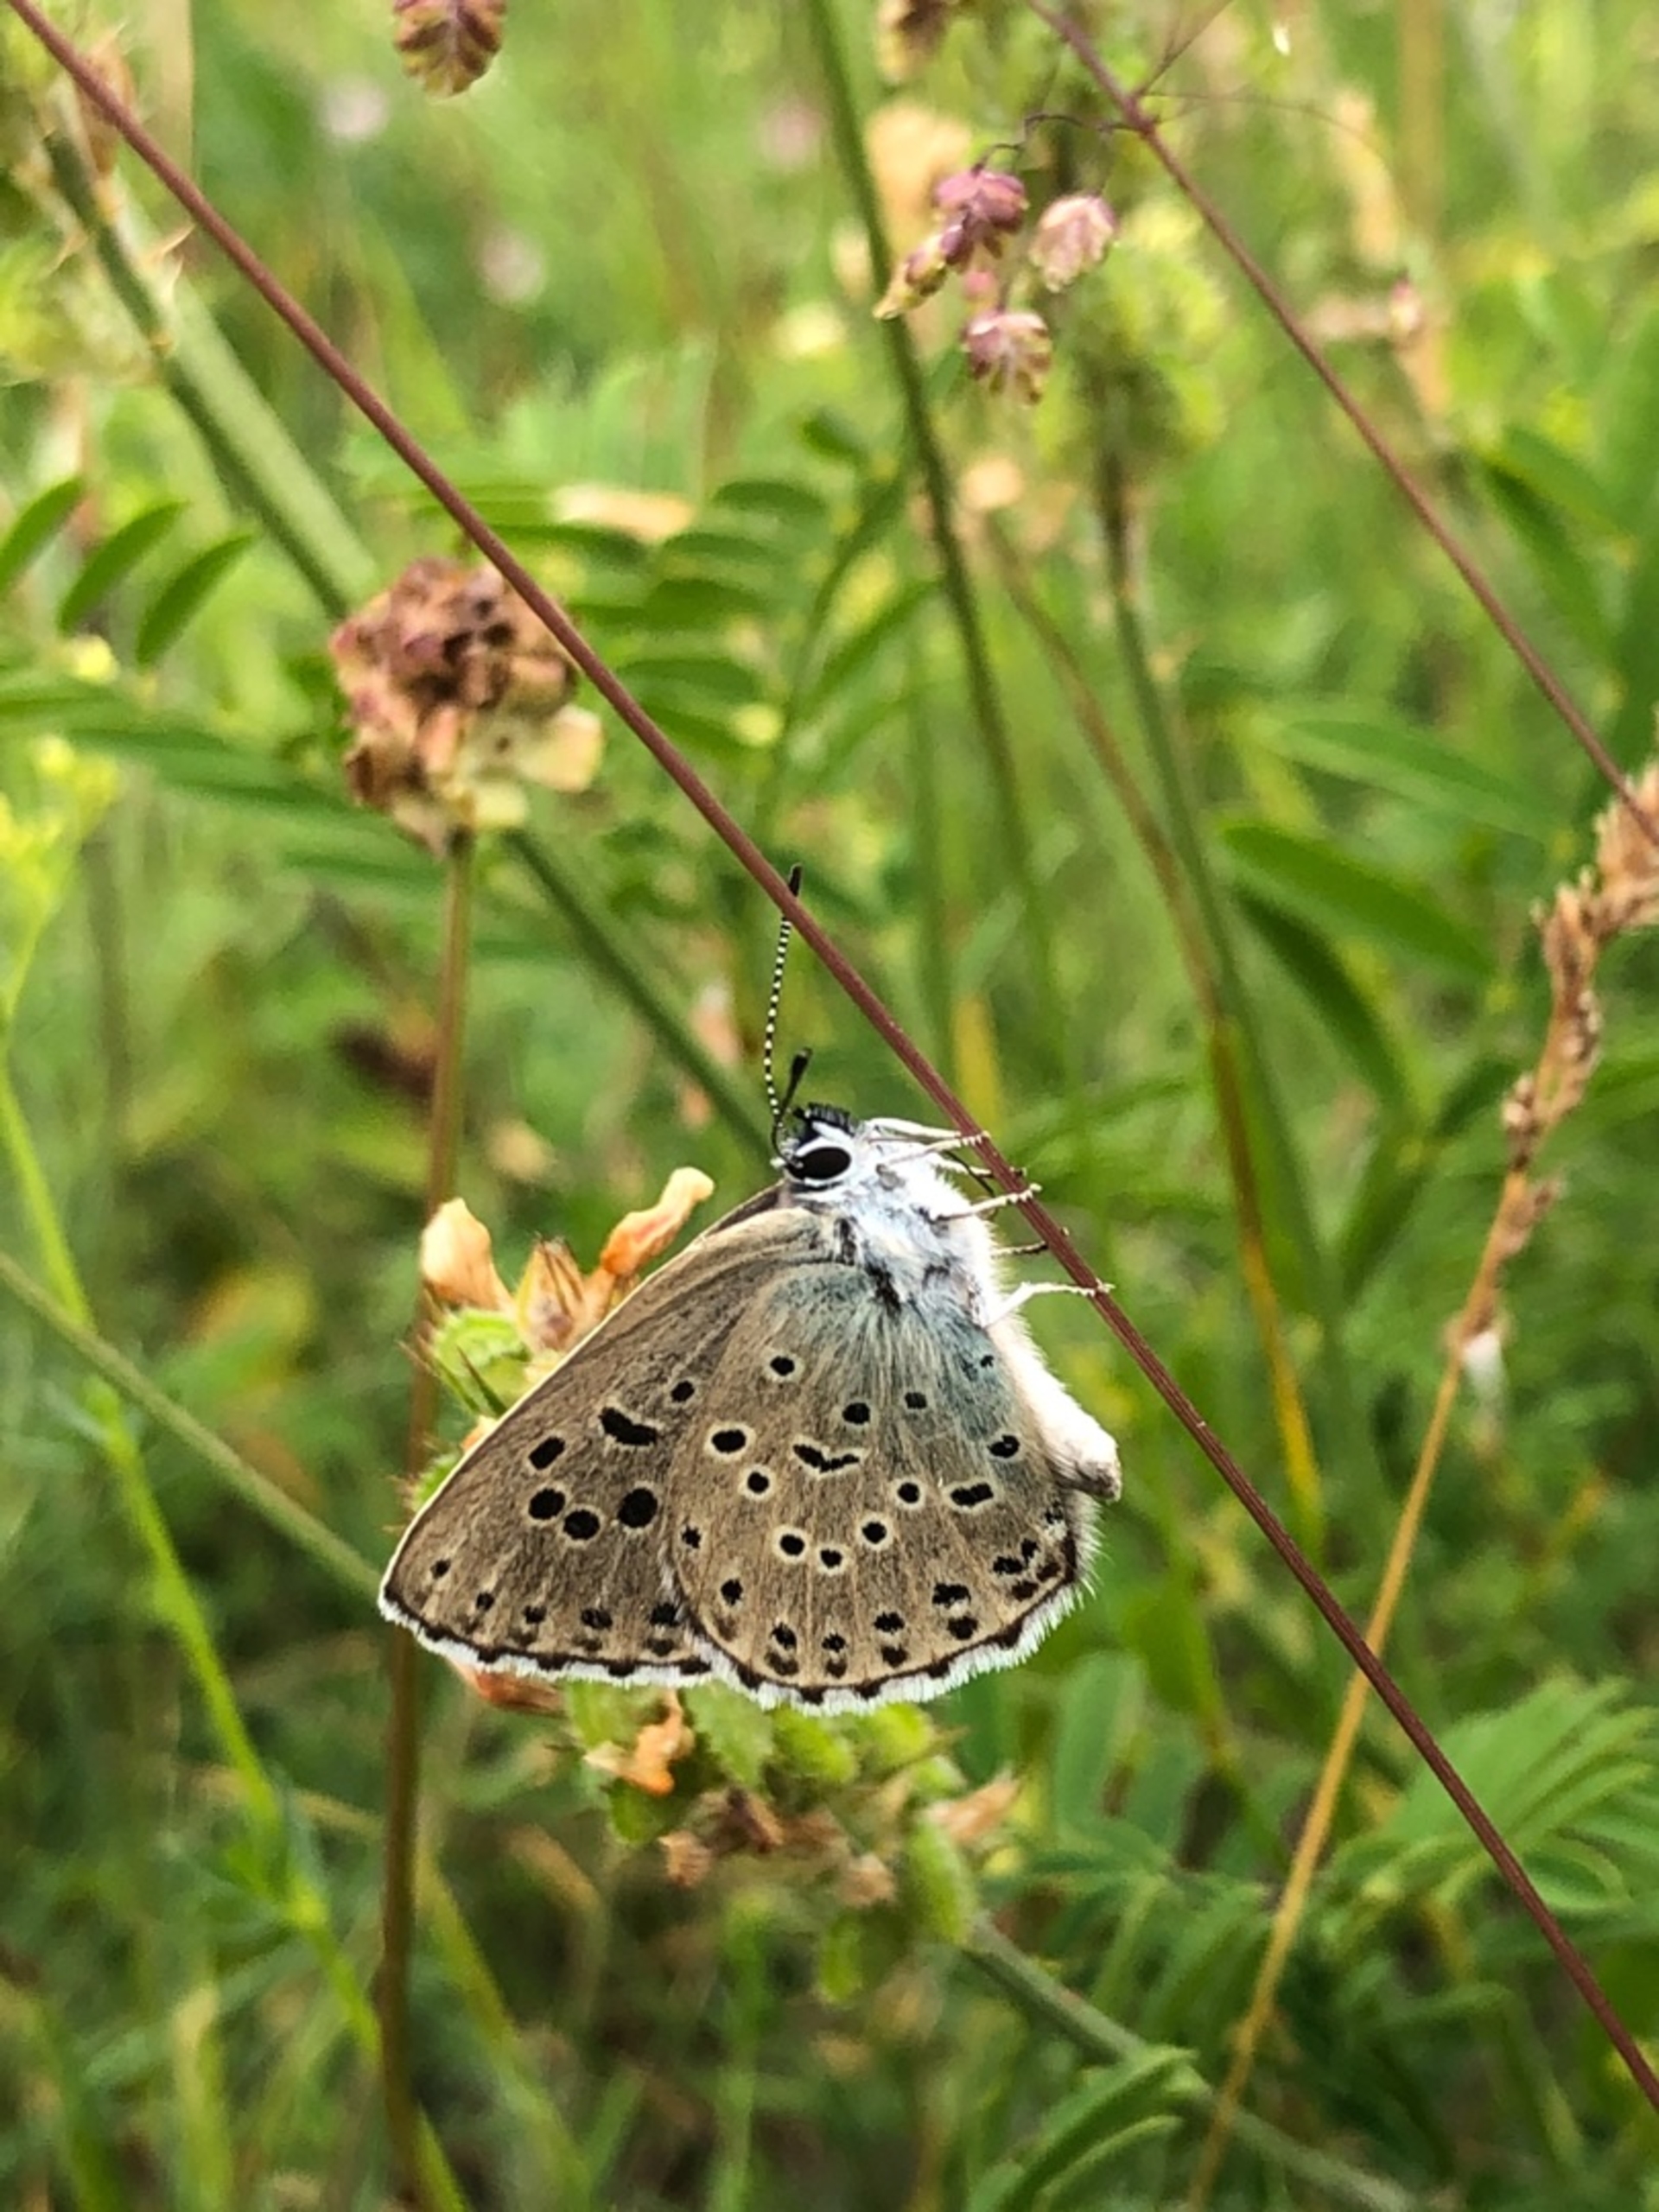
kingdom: Animalia
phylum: Arthropoda
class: Insecta
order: Lepidoptera
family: Lycaenidae
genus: Maculinea
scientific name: Maculinea arion
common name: Sortplettet blåfugl
